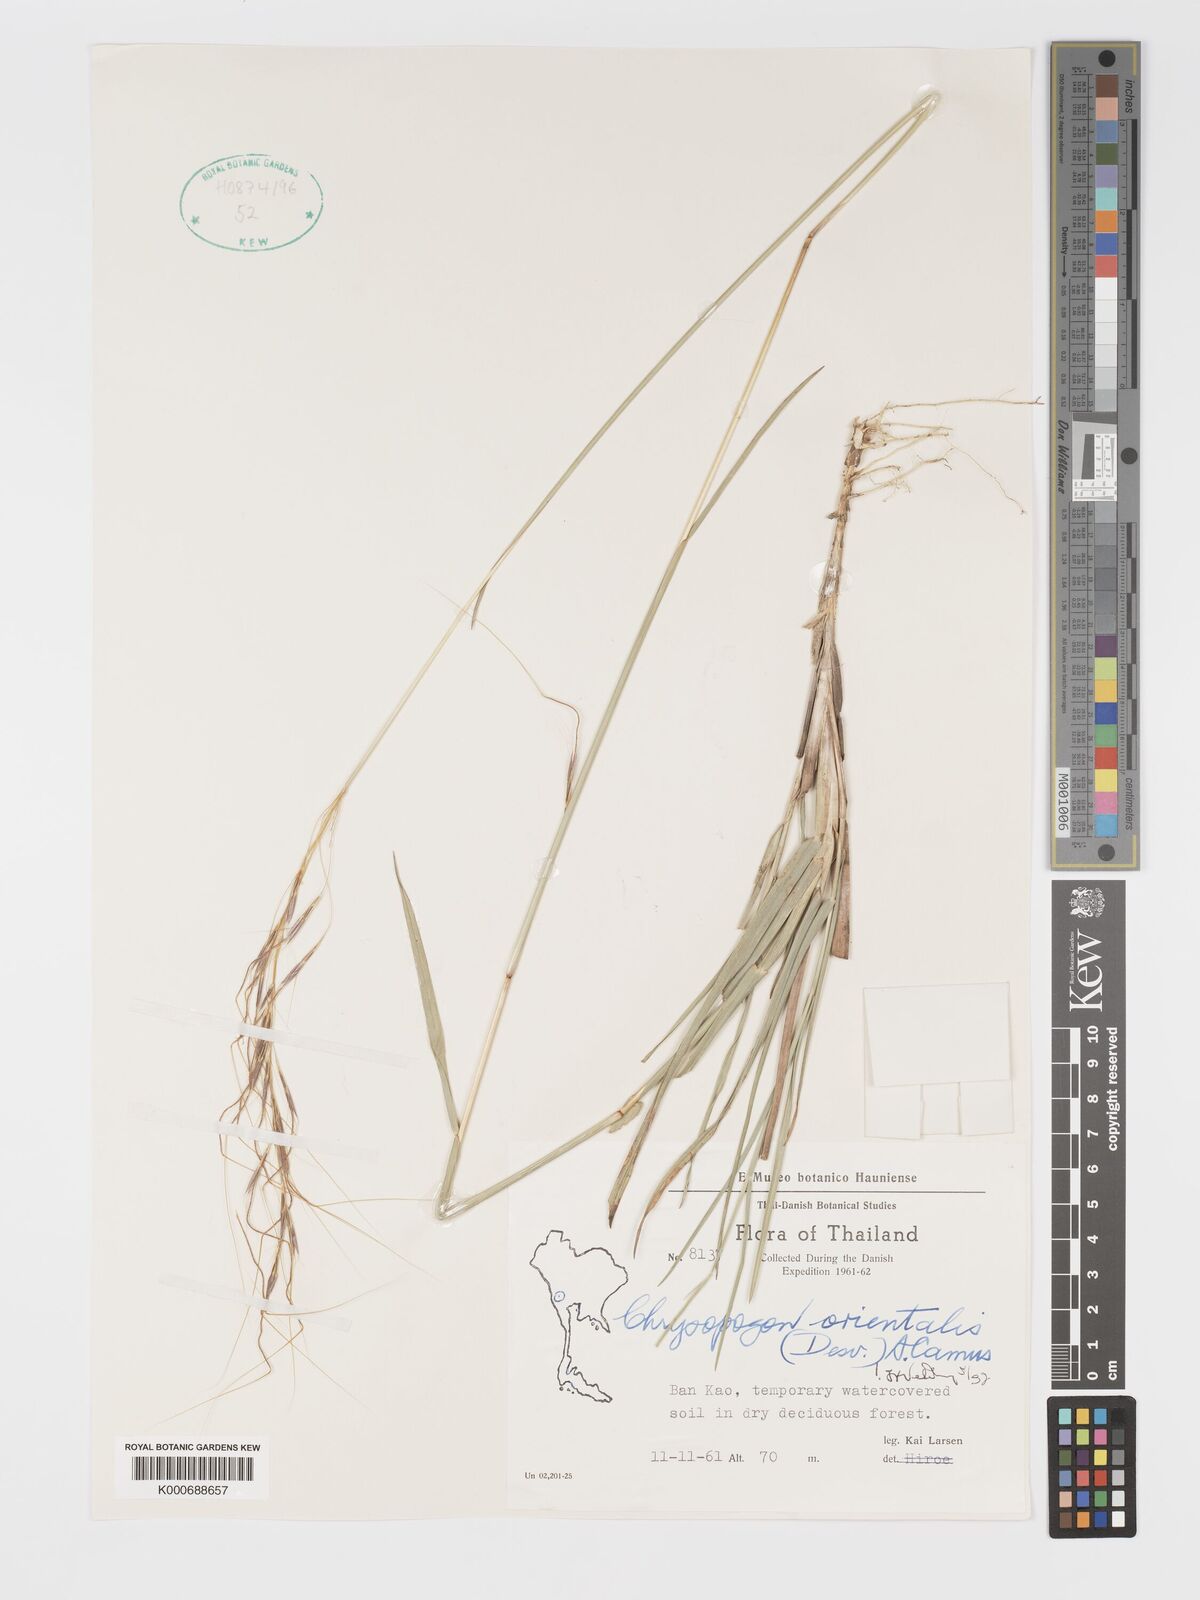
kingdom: Plantae
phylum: Tracheophyta
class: Liliopsida
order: Poales
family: Poaceae
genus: Chrysopogon
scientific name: Chrysopogon orientalis
